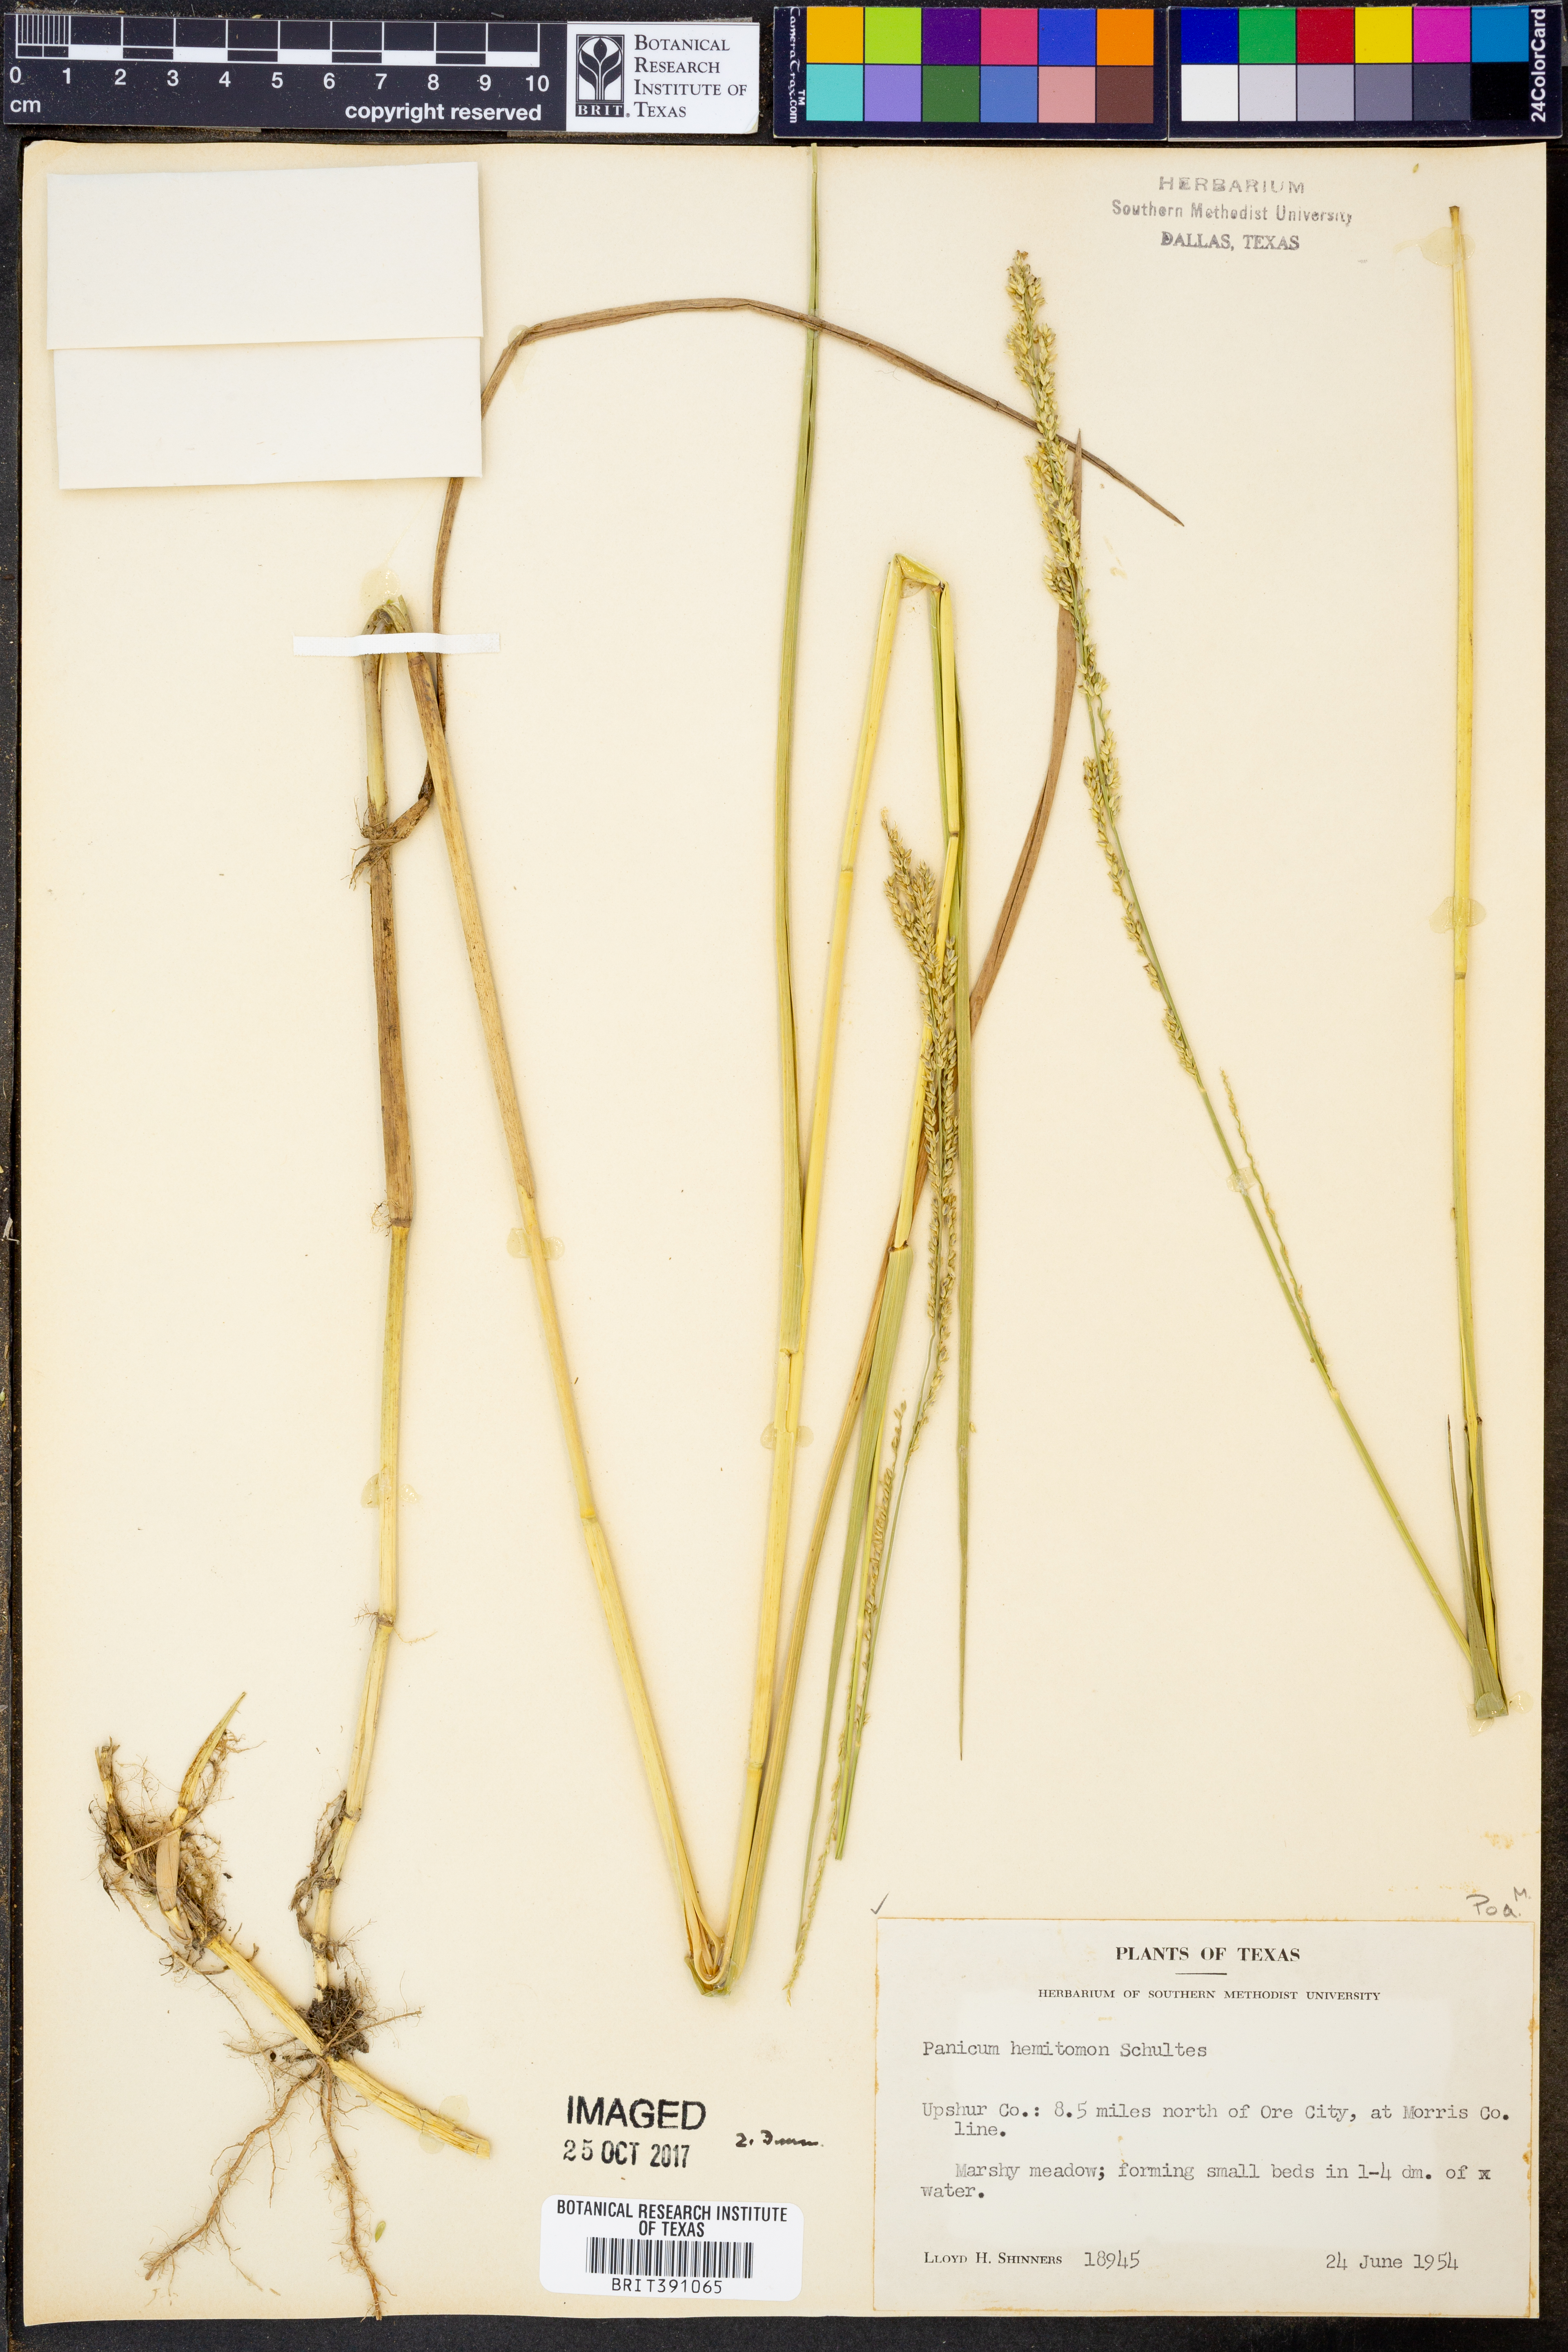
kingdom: Plantae
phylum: Tracheophyta
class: Liliopsida
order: Poales
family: Poaceae
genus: Panicum
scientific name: Panicum hemitomon
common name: Maidencane
